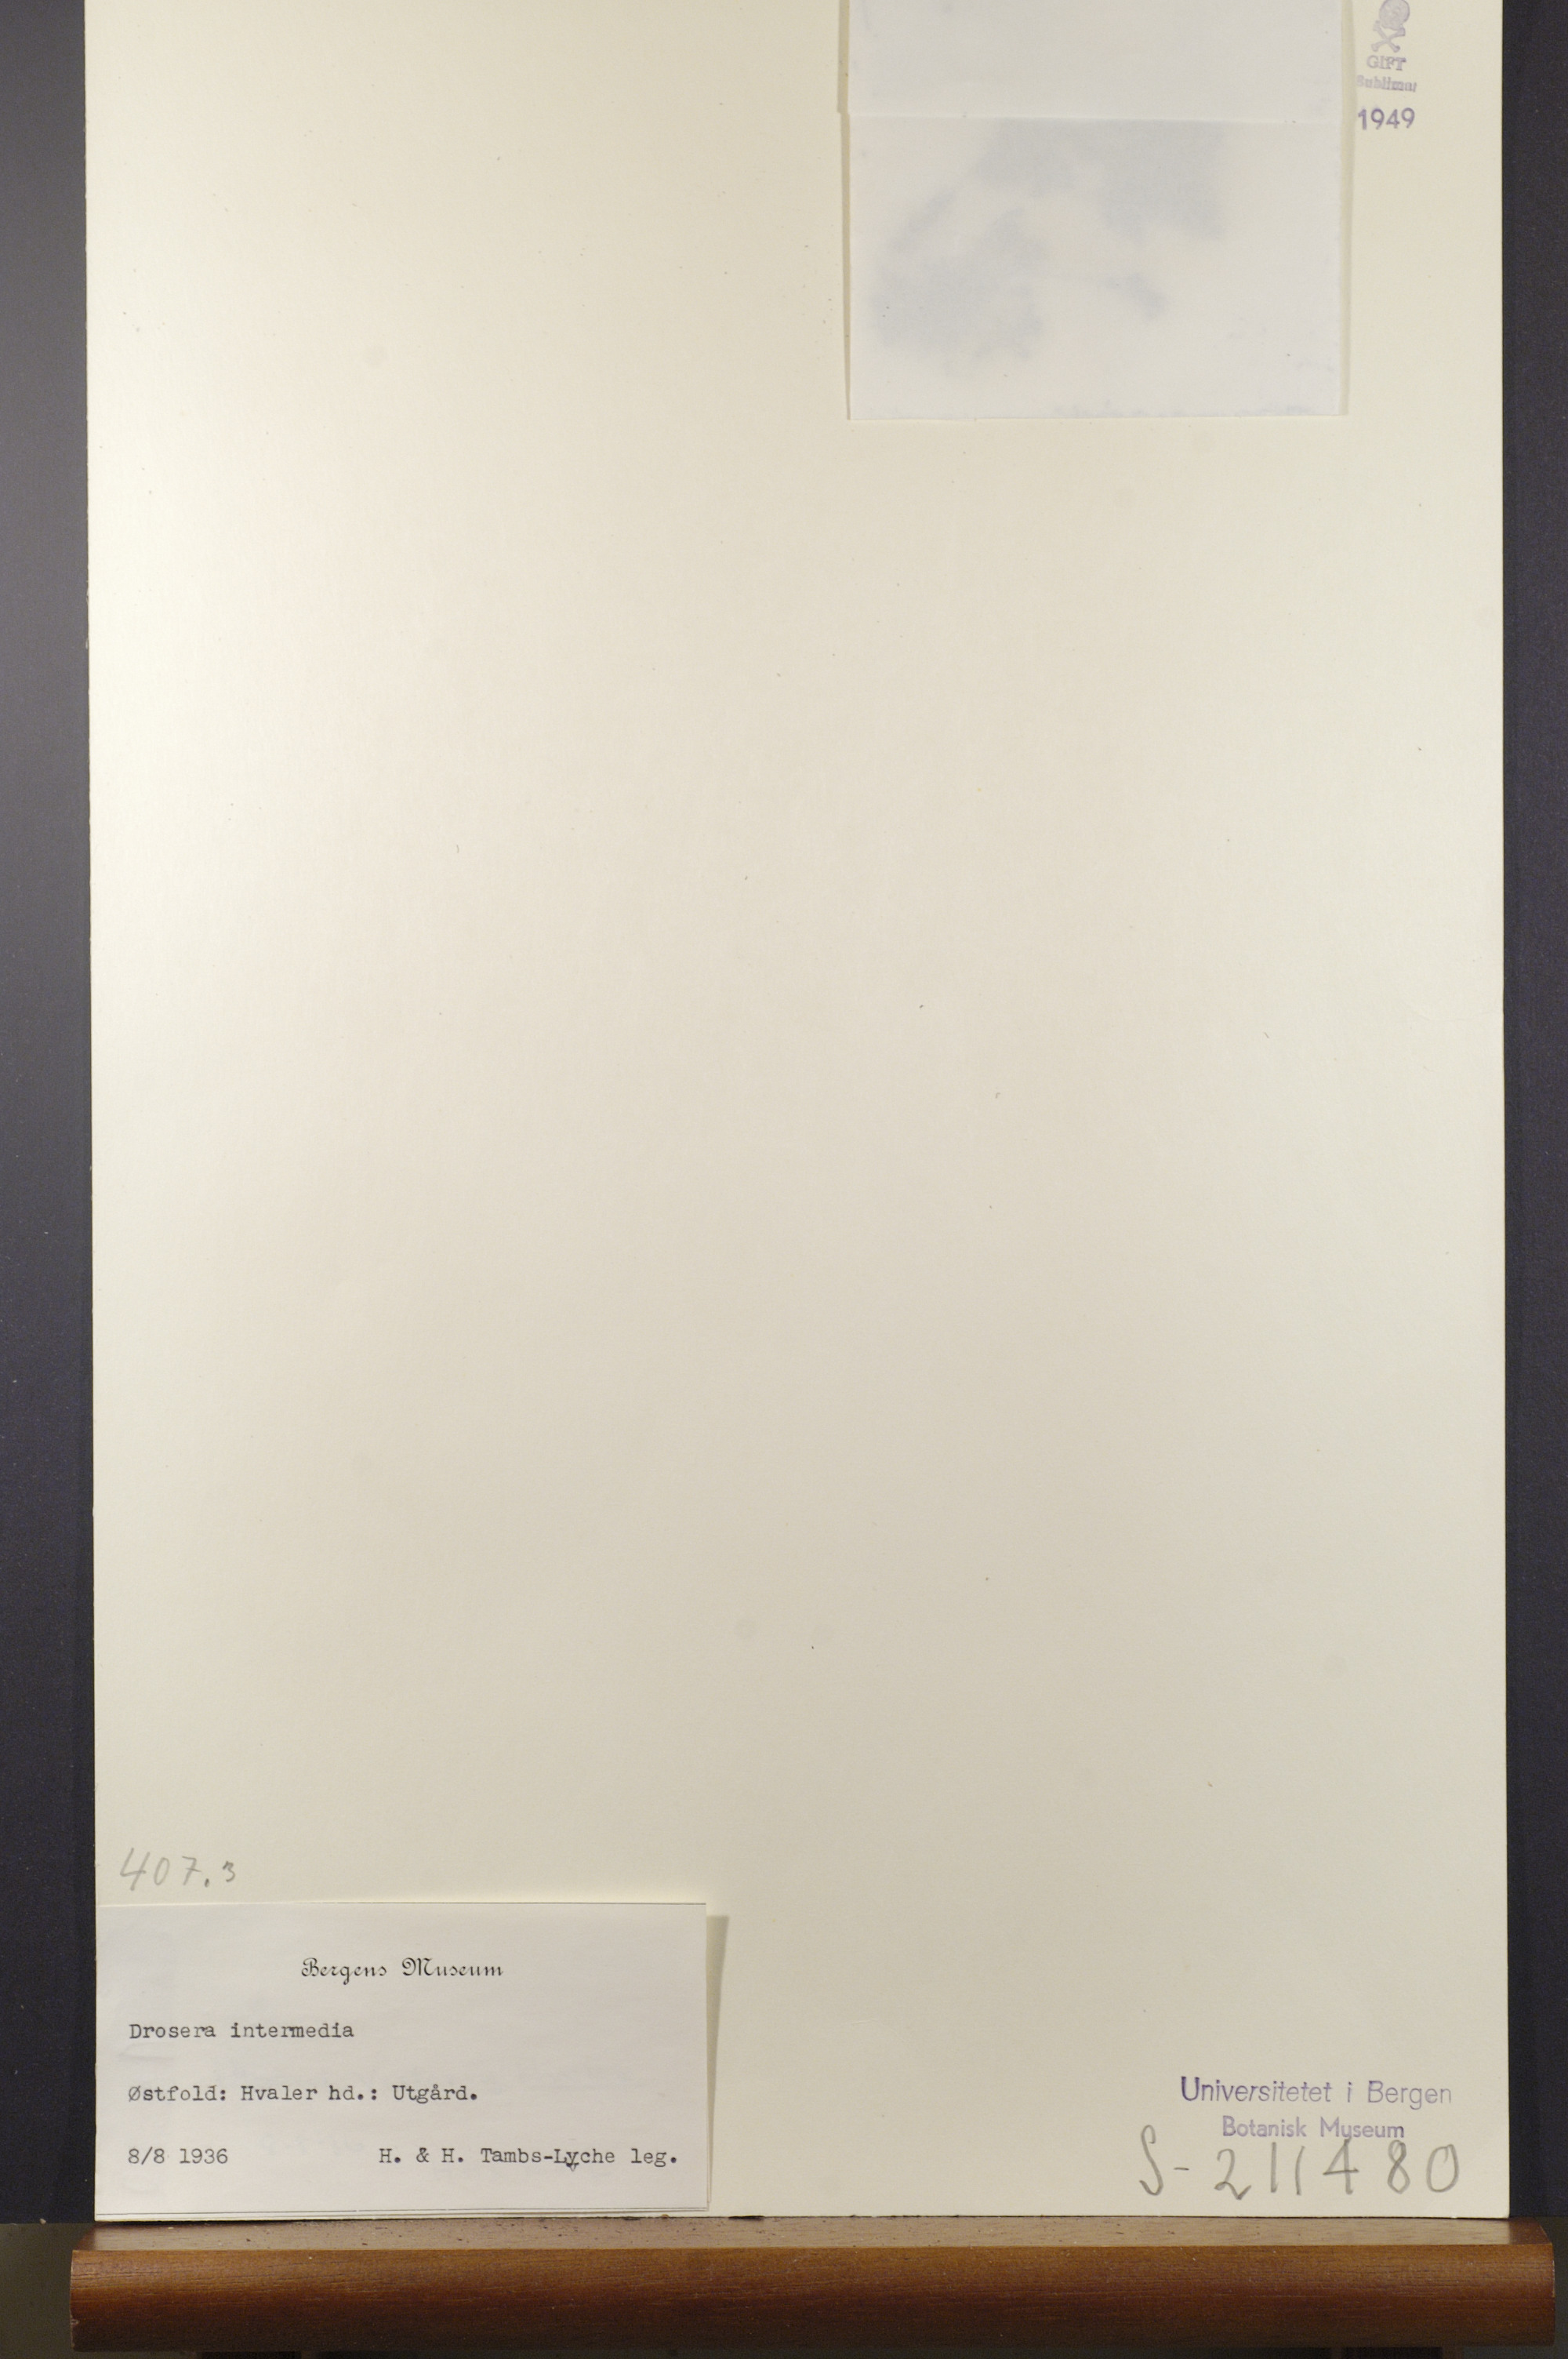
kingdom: Plantae
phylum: Tracheophyta
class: Magnoliopsida
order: Caryophyllales
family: Droseraceae
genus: Drosera
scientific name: Drosera intermedia
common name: Oblong-leaved sundew
